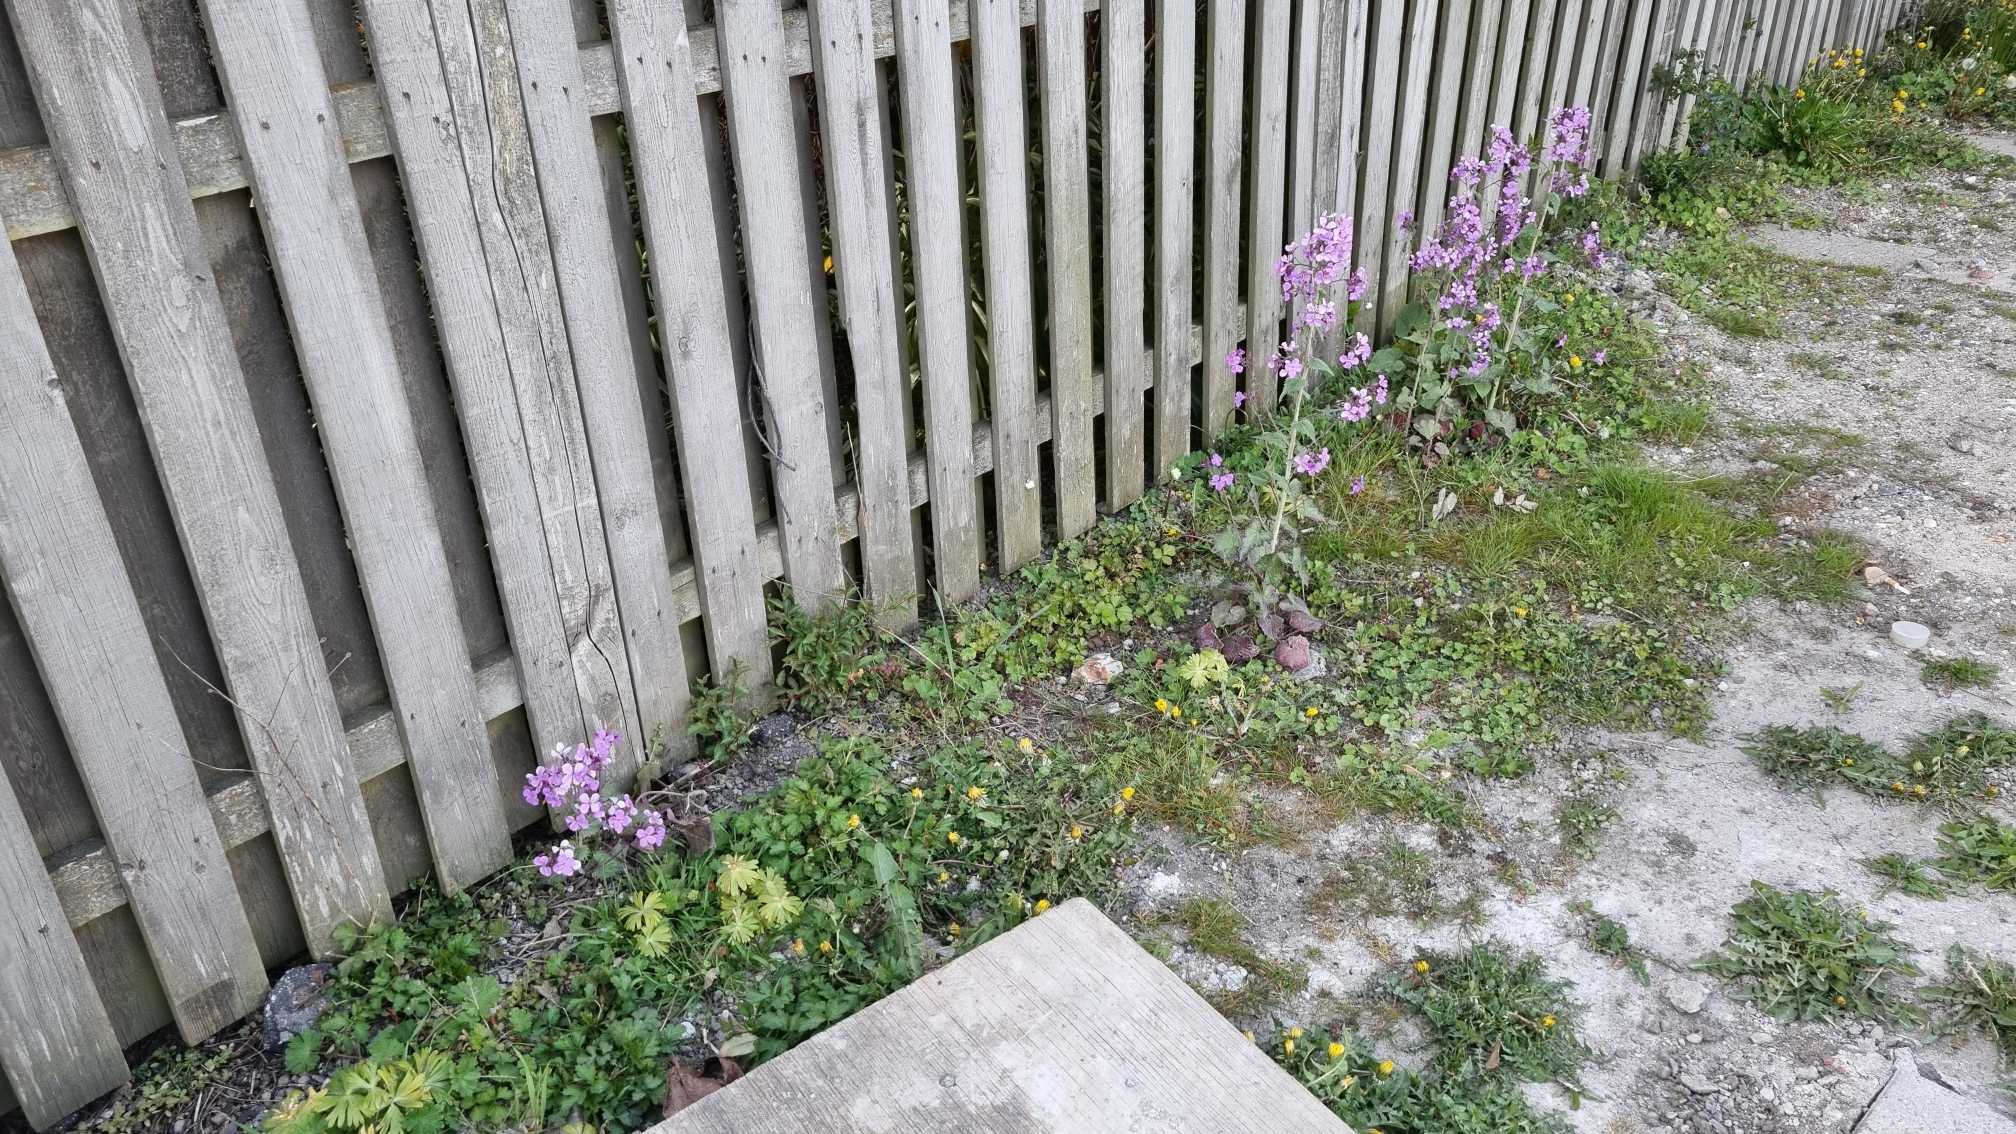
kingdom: Plantae
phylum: Tracheophyta
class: Magnoliopsida
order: Brassicales
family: Brassicaceae
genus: Lunaria
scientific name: Lunaria annua
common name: Judaspenge
